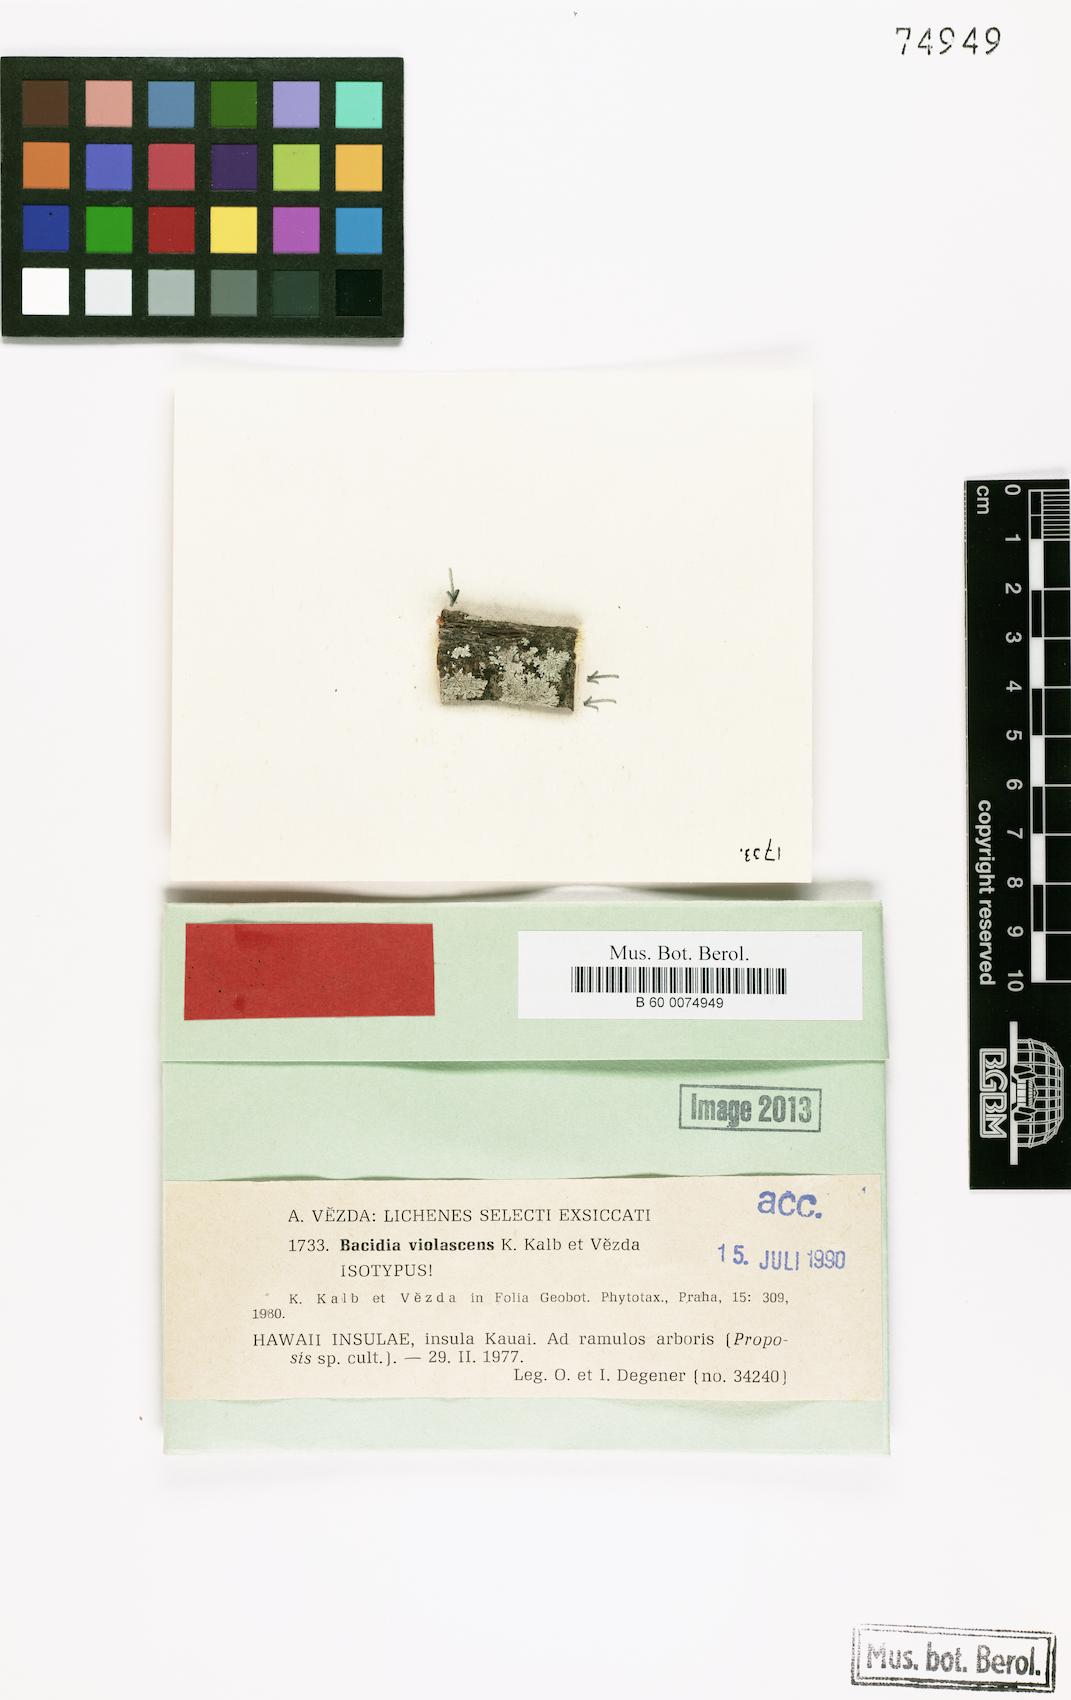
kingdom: Fungi
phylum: Ascomycota
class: Lecanoromycetes
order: Lecanorales
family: Ramalinaceae
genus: Mycobilimbia
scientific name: Mycobilimbia violascens
